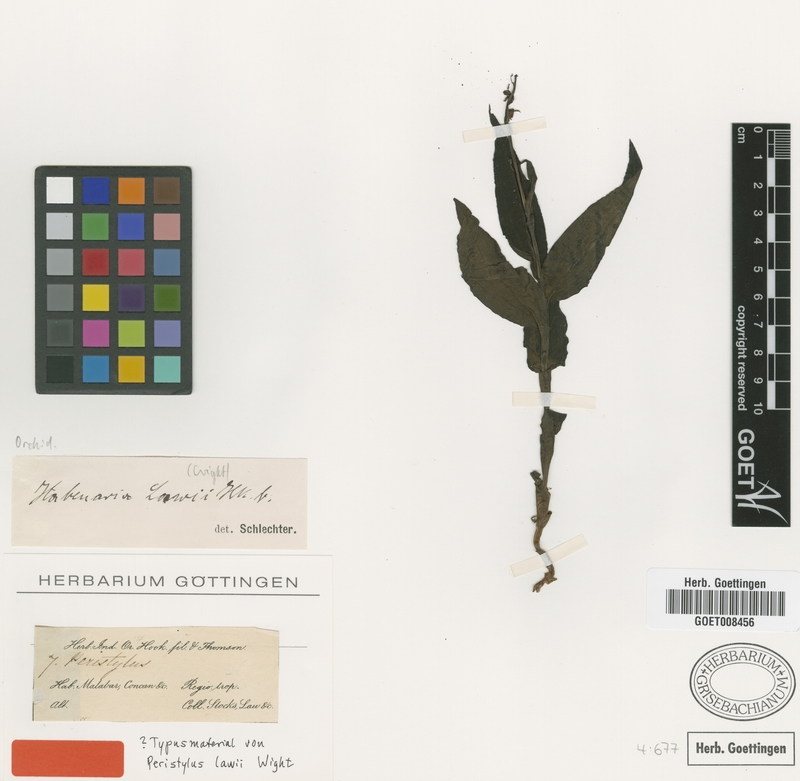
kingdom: Plantae
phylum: Tracheophyta
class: Liliopsida
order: Asparagales
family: Orchidaceae
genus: Peristylus
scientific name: Peristylus lawii
